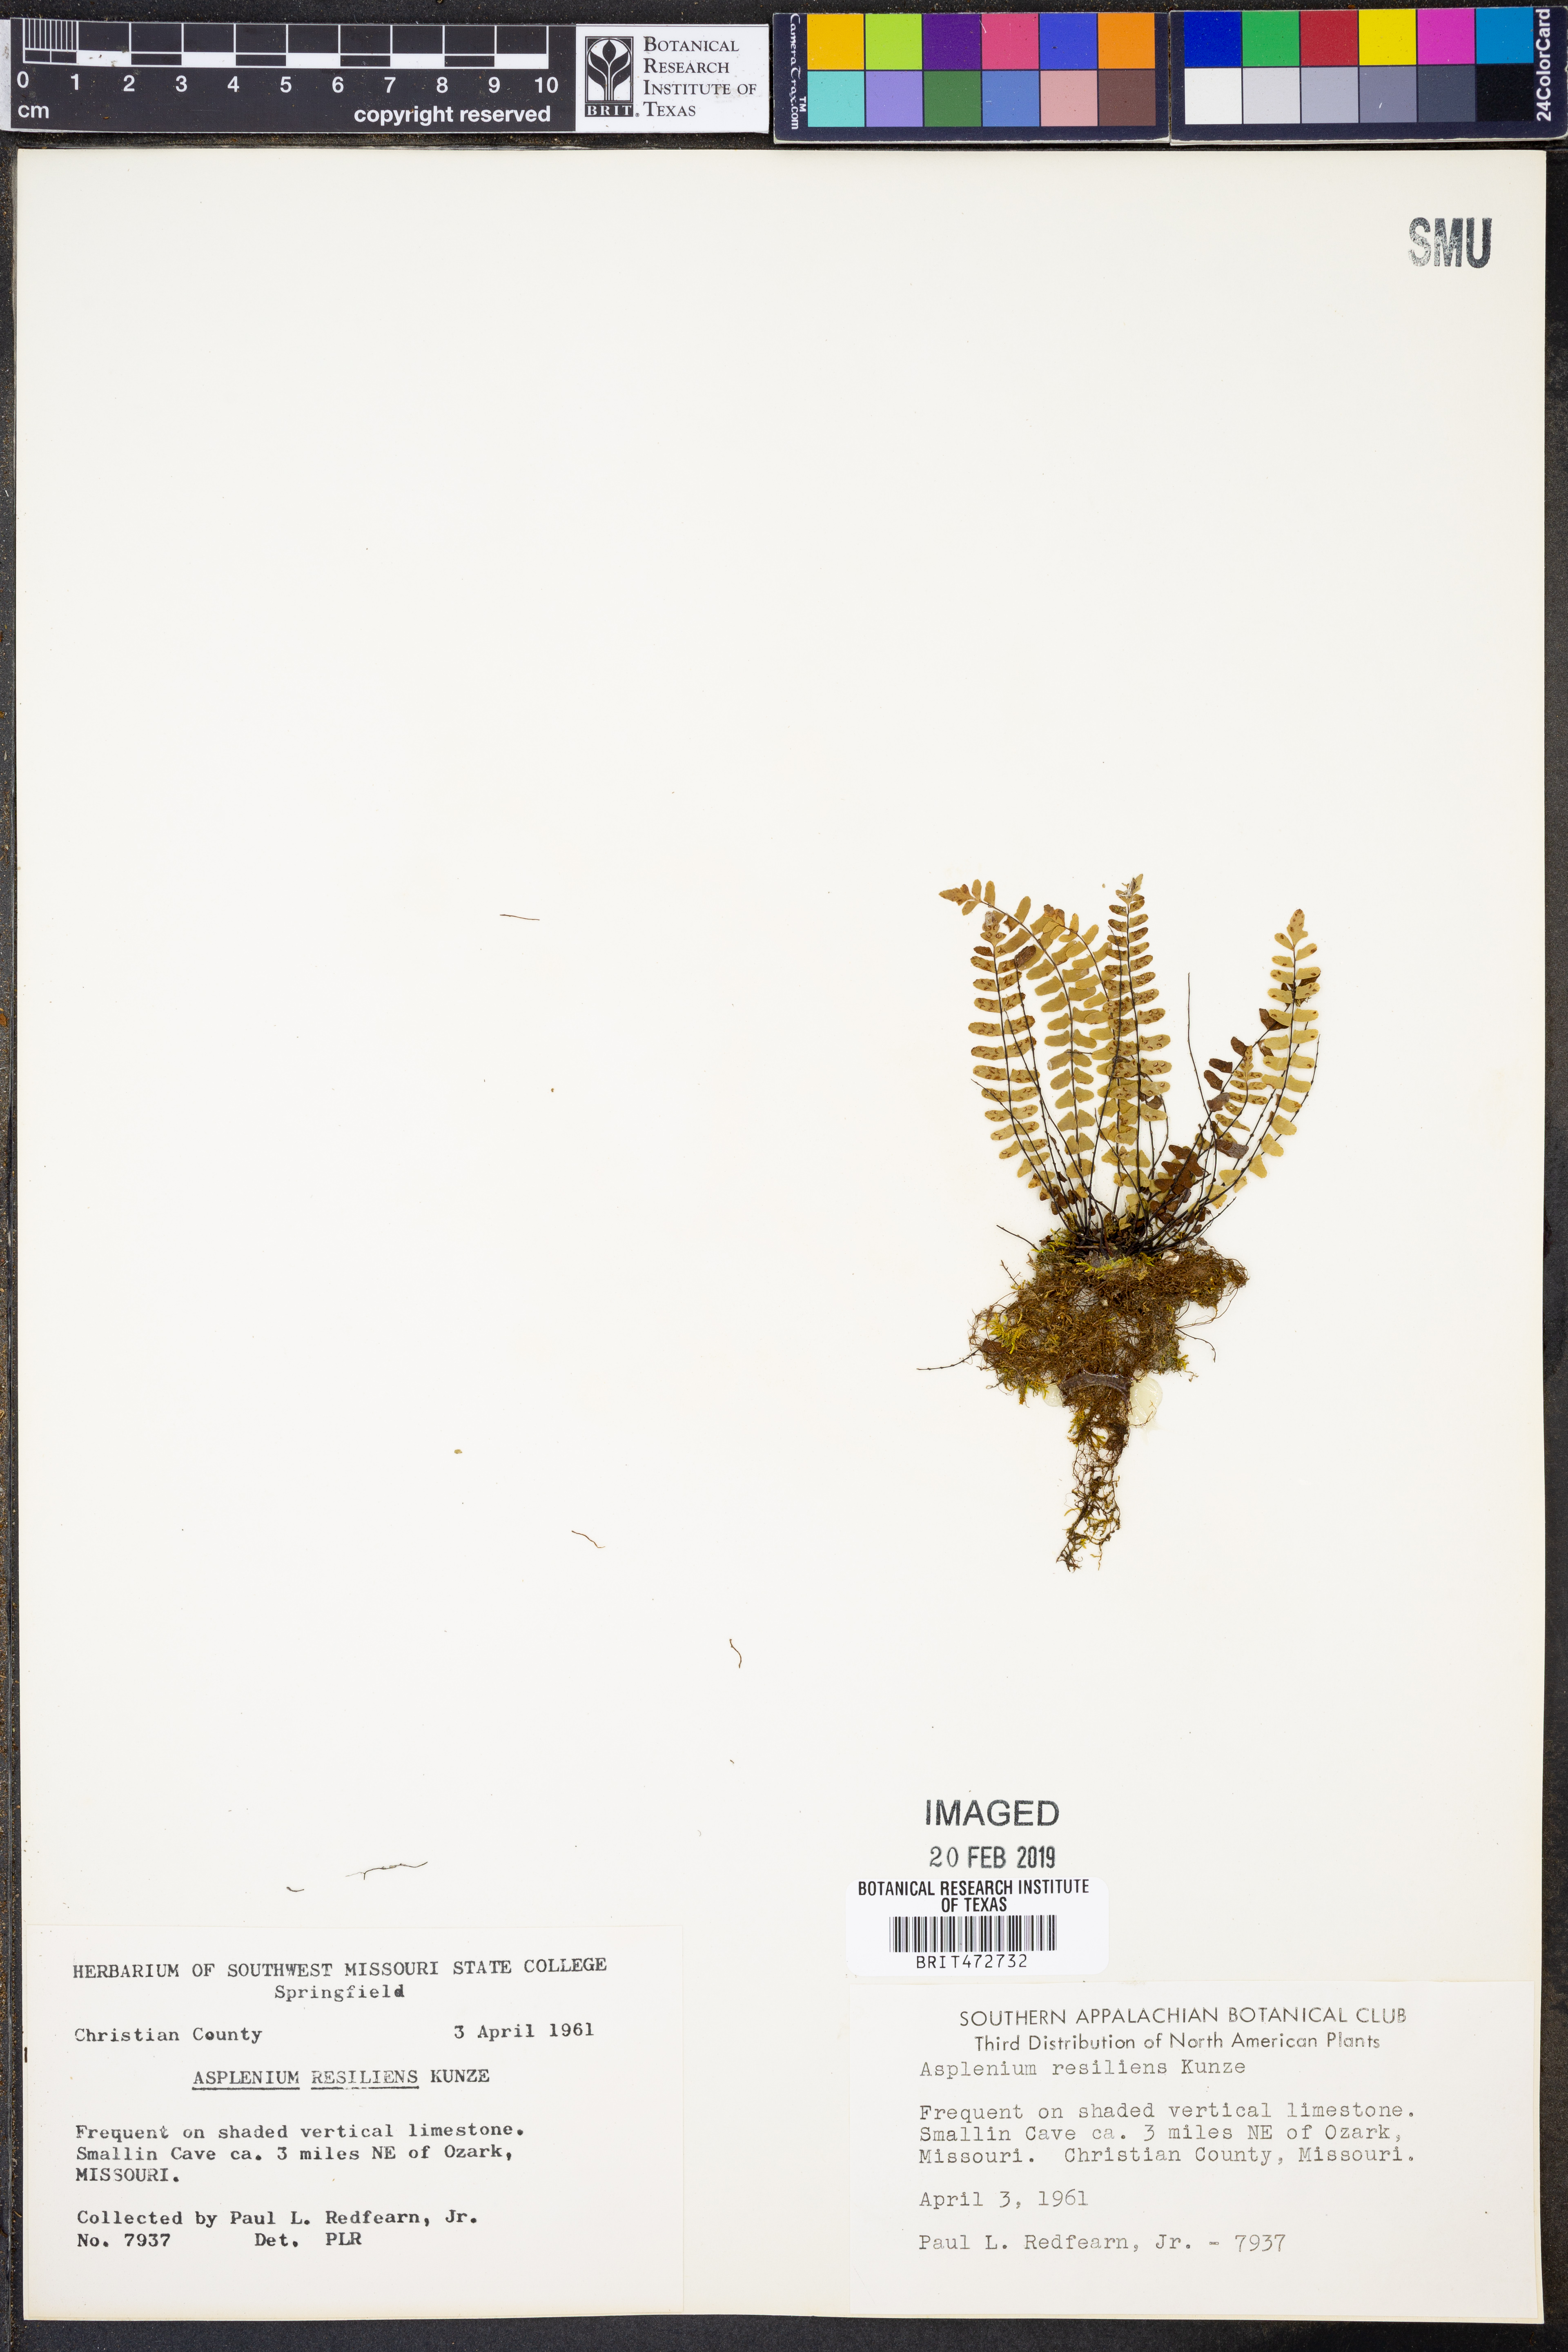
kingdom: Plantae
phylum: Tracheophyta
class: Polypodiopsida
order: Polypodiales
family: Aspleniaceae
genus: Asplenium
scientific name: Asplenium resiliens
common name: Blackstem spleenwort
